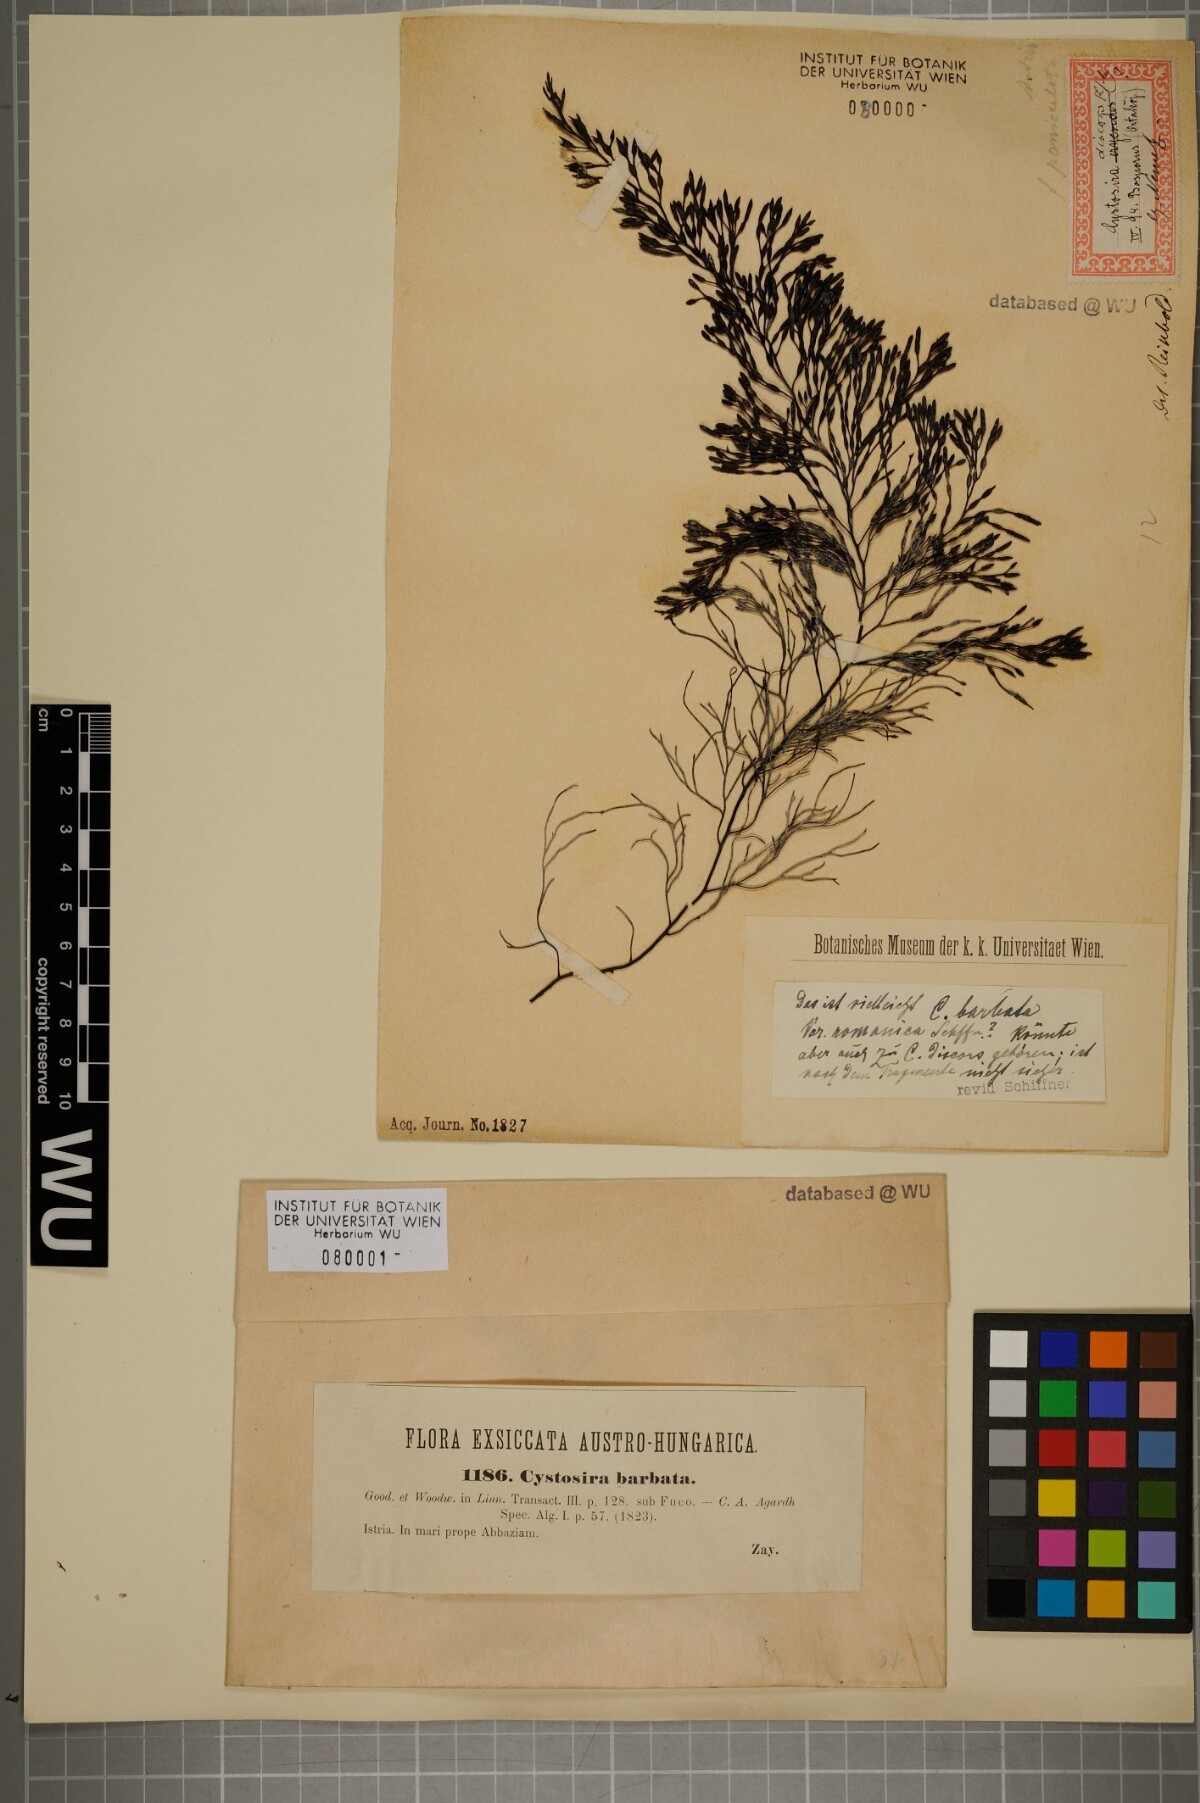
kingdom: Chromista
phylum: Ochrophyta
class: Phaeophyceae
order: Fucales
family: Sargassaceae
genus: Cystoseira
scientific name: Cystoseira Gongolaria barbata
